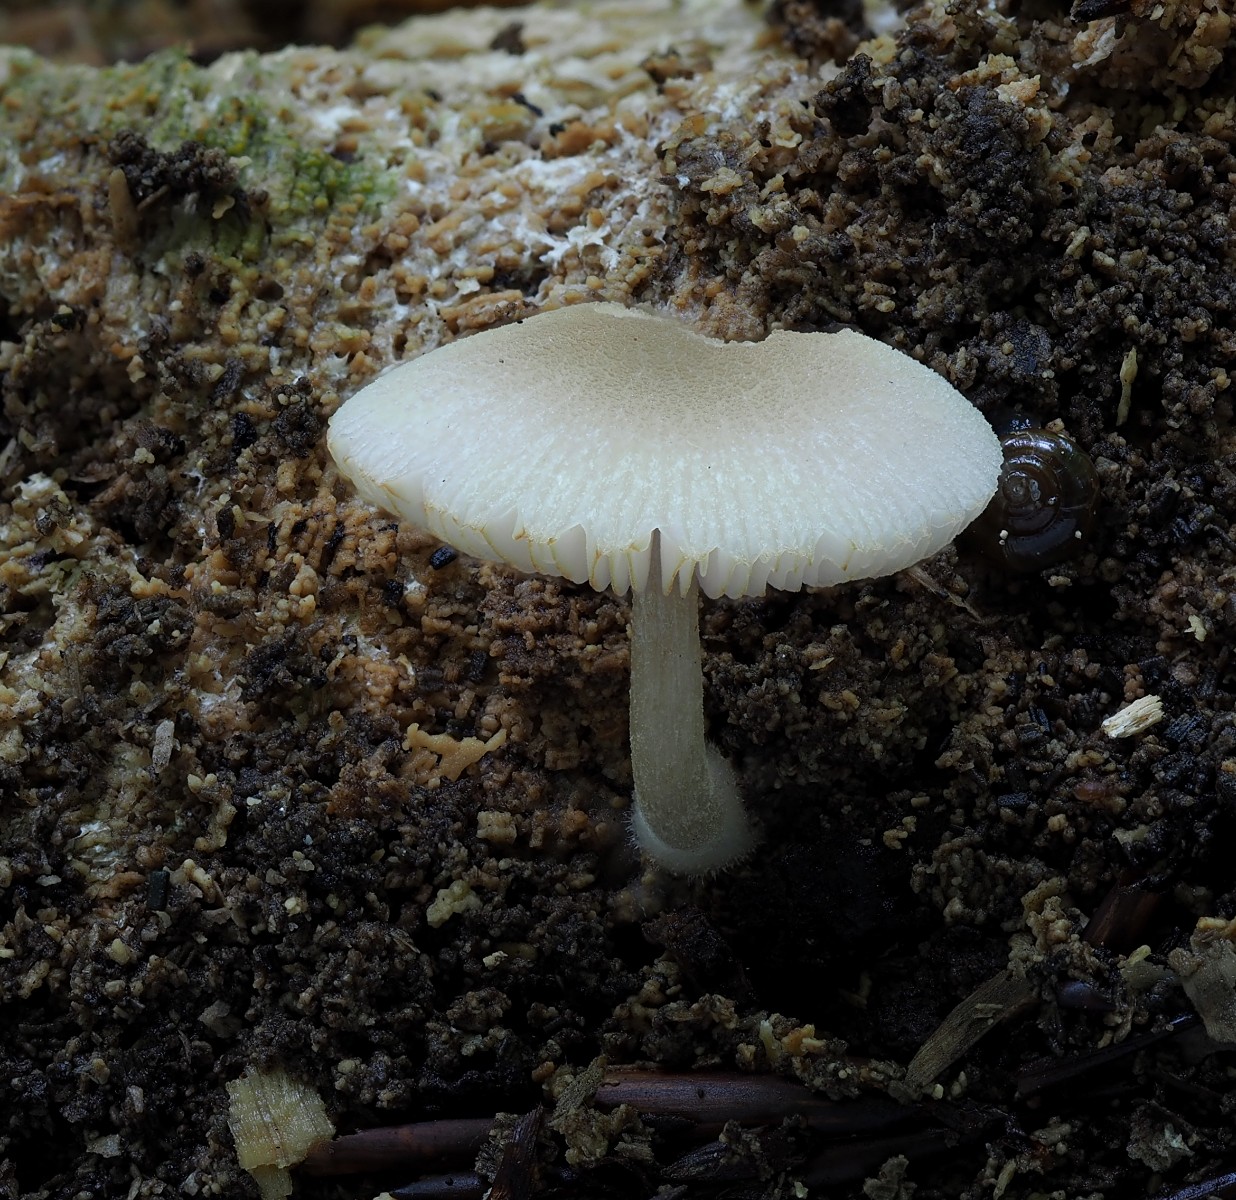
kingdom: Fungi
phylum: Basidiomycota
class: Agaricomycetes
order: Agaricales
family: Pluteaceae
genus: Pluteus
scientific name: Pluteus semibulbosus
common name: knoldet skærmhat
